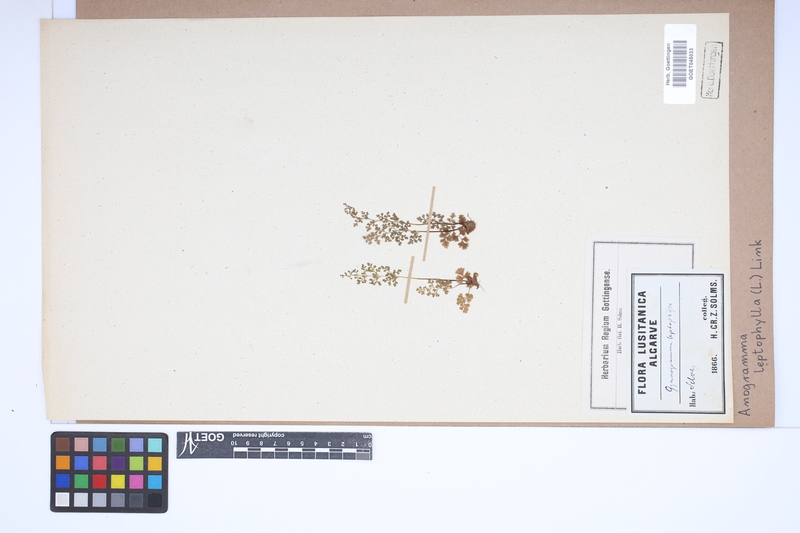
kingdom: Plantae
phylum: Tracheophyta
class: Polypodiopsida
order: Polypodiales
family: Pteridaceae
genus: Anogramma
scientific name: Anogramma leptophylla
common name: Jersey fern
